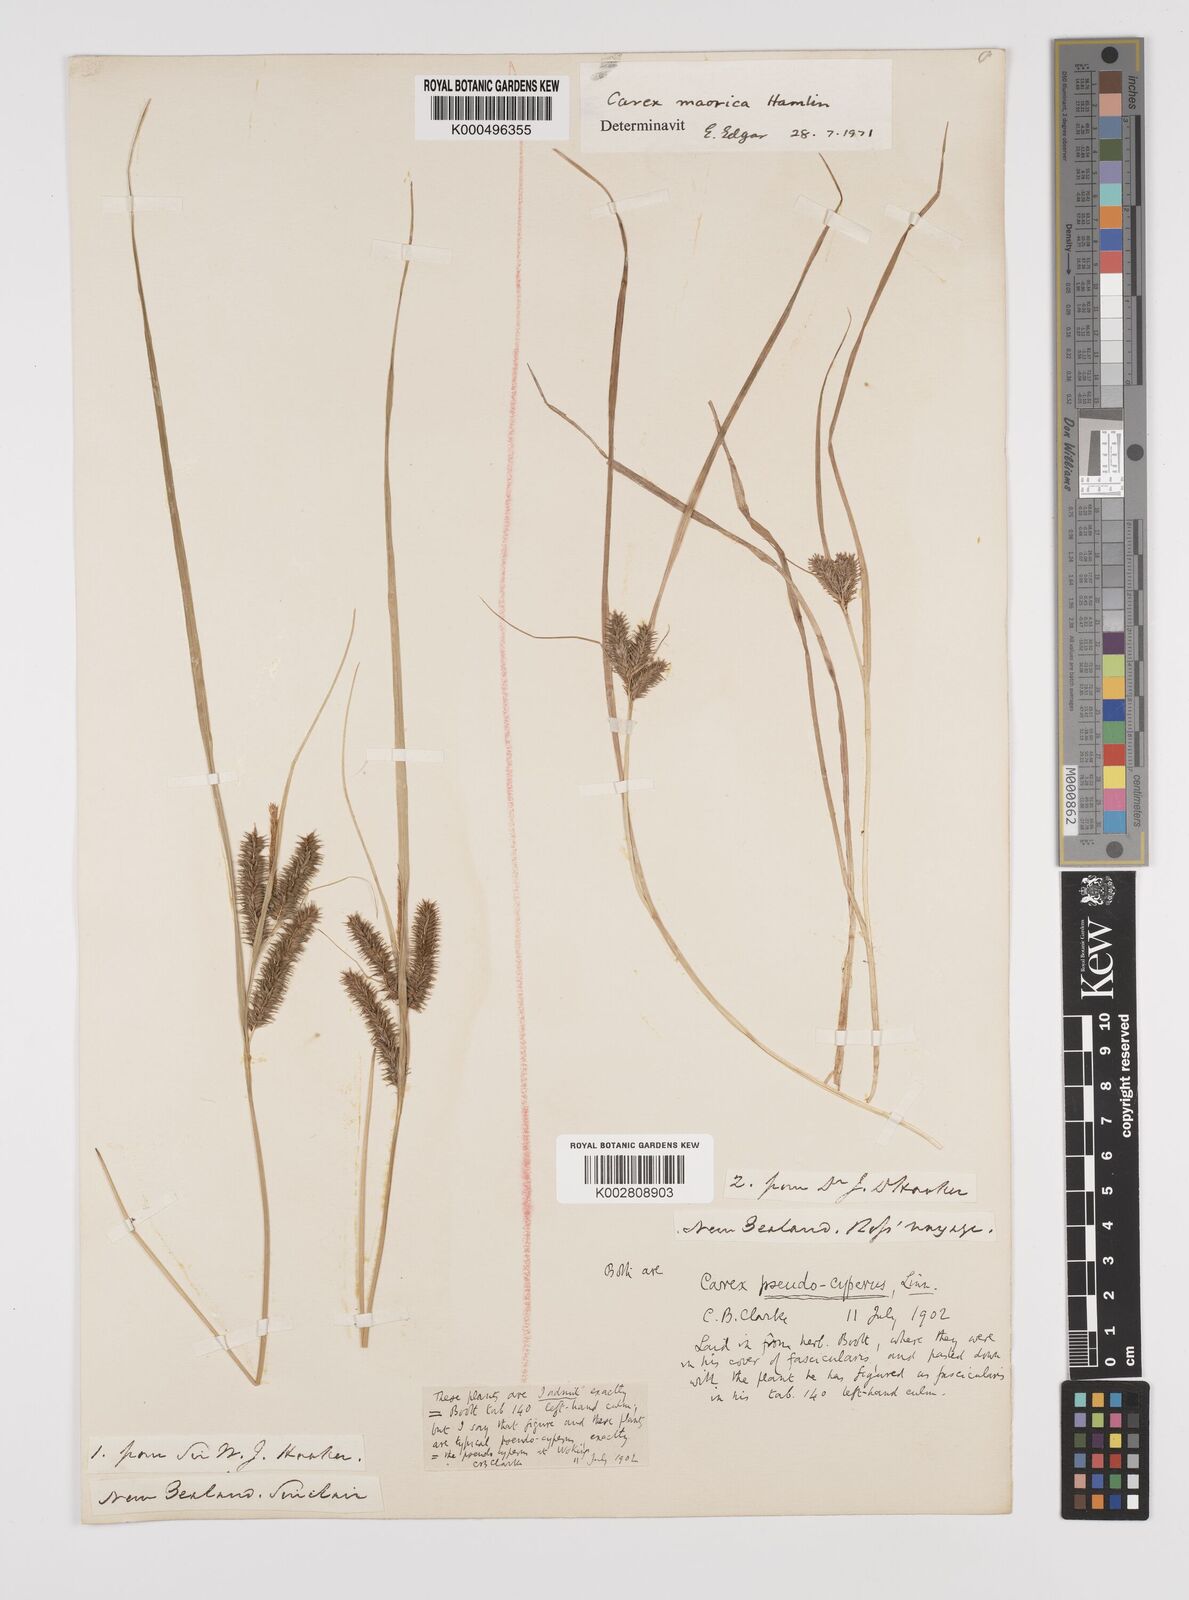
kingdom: Plantae
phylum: Tracheophyta
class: Liliopsida
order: Poales
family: Cyperaceae
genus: Carex
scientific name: Carex maorica
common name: Maori sedge
